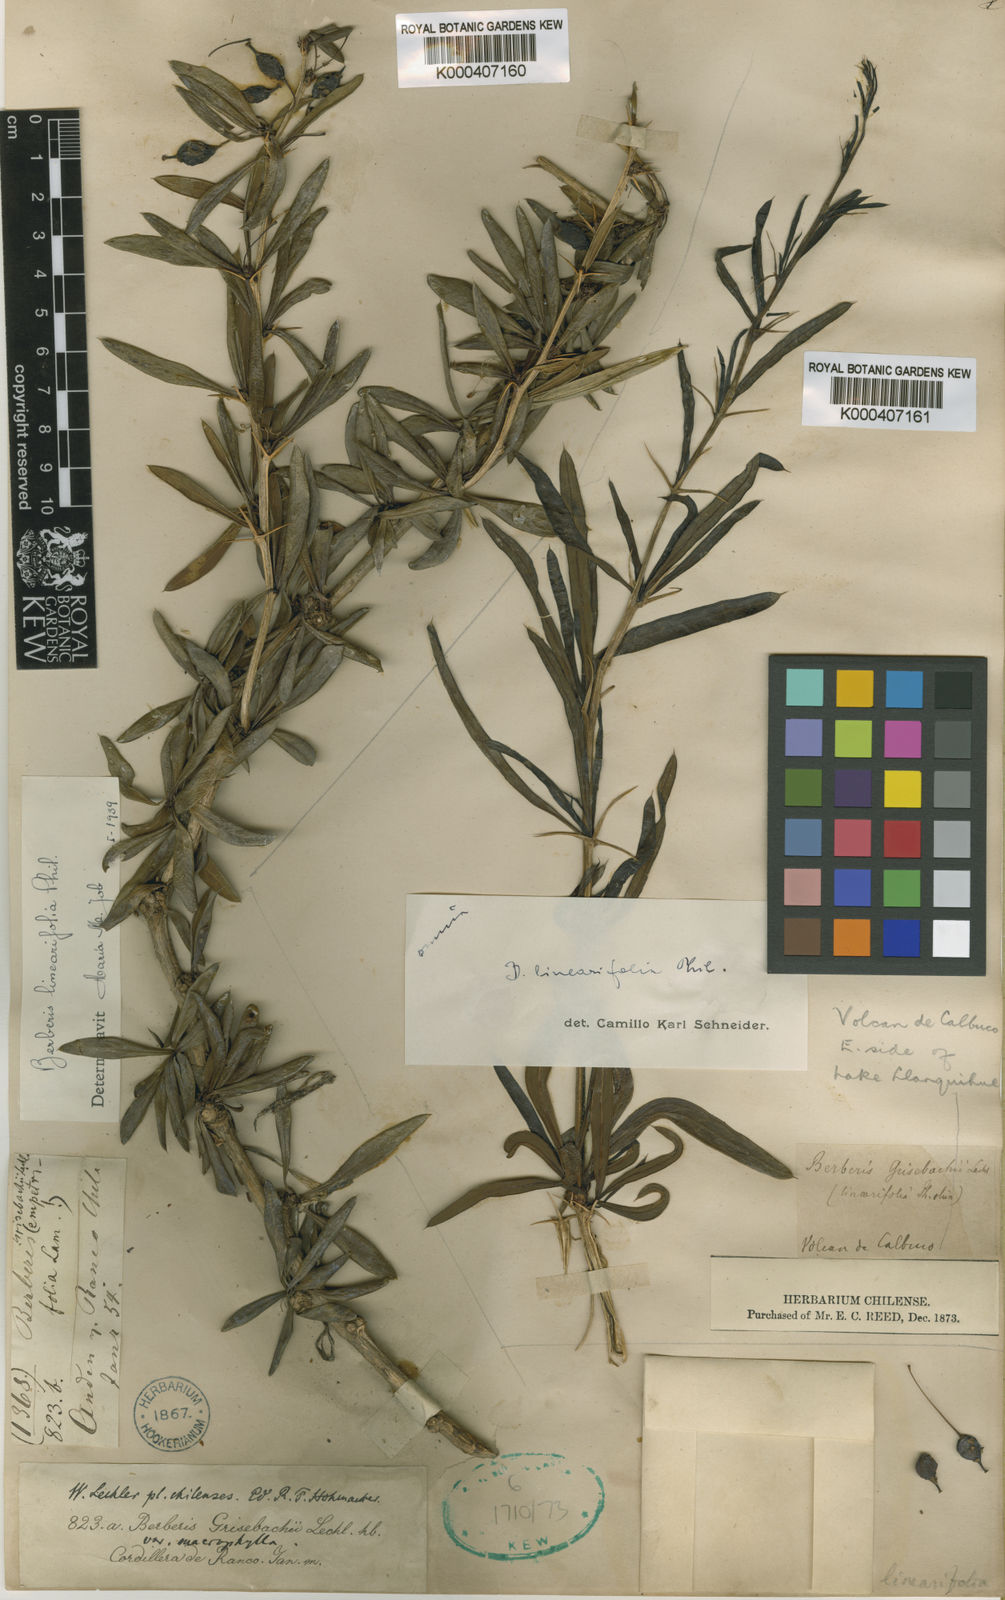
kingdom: Plantae
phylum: Tracheophyta
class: Magnoliopsida
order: Ranunculales
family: Berberidaceae
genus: Berberis
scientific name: Berberis trigona
